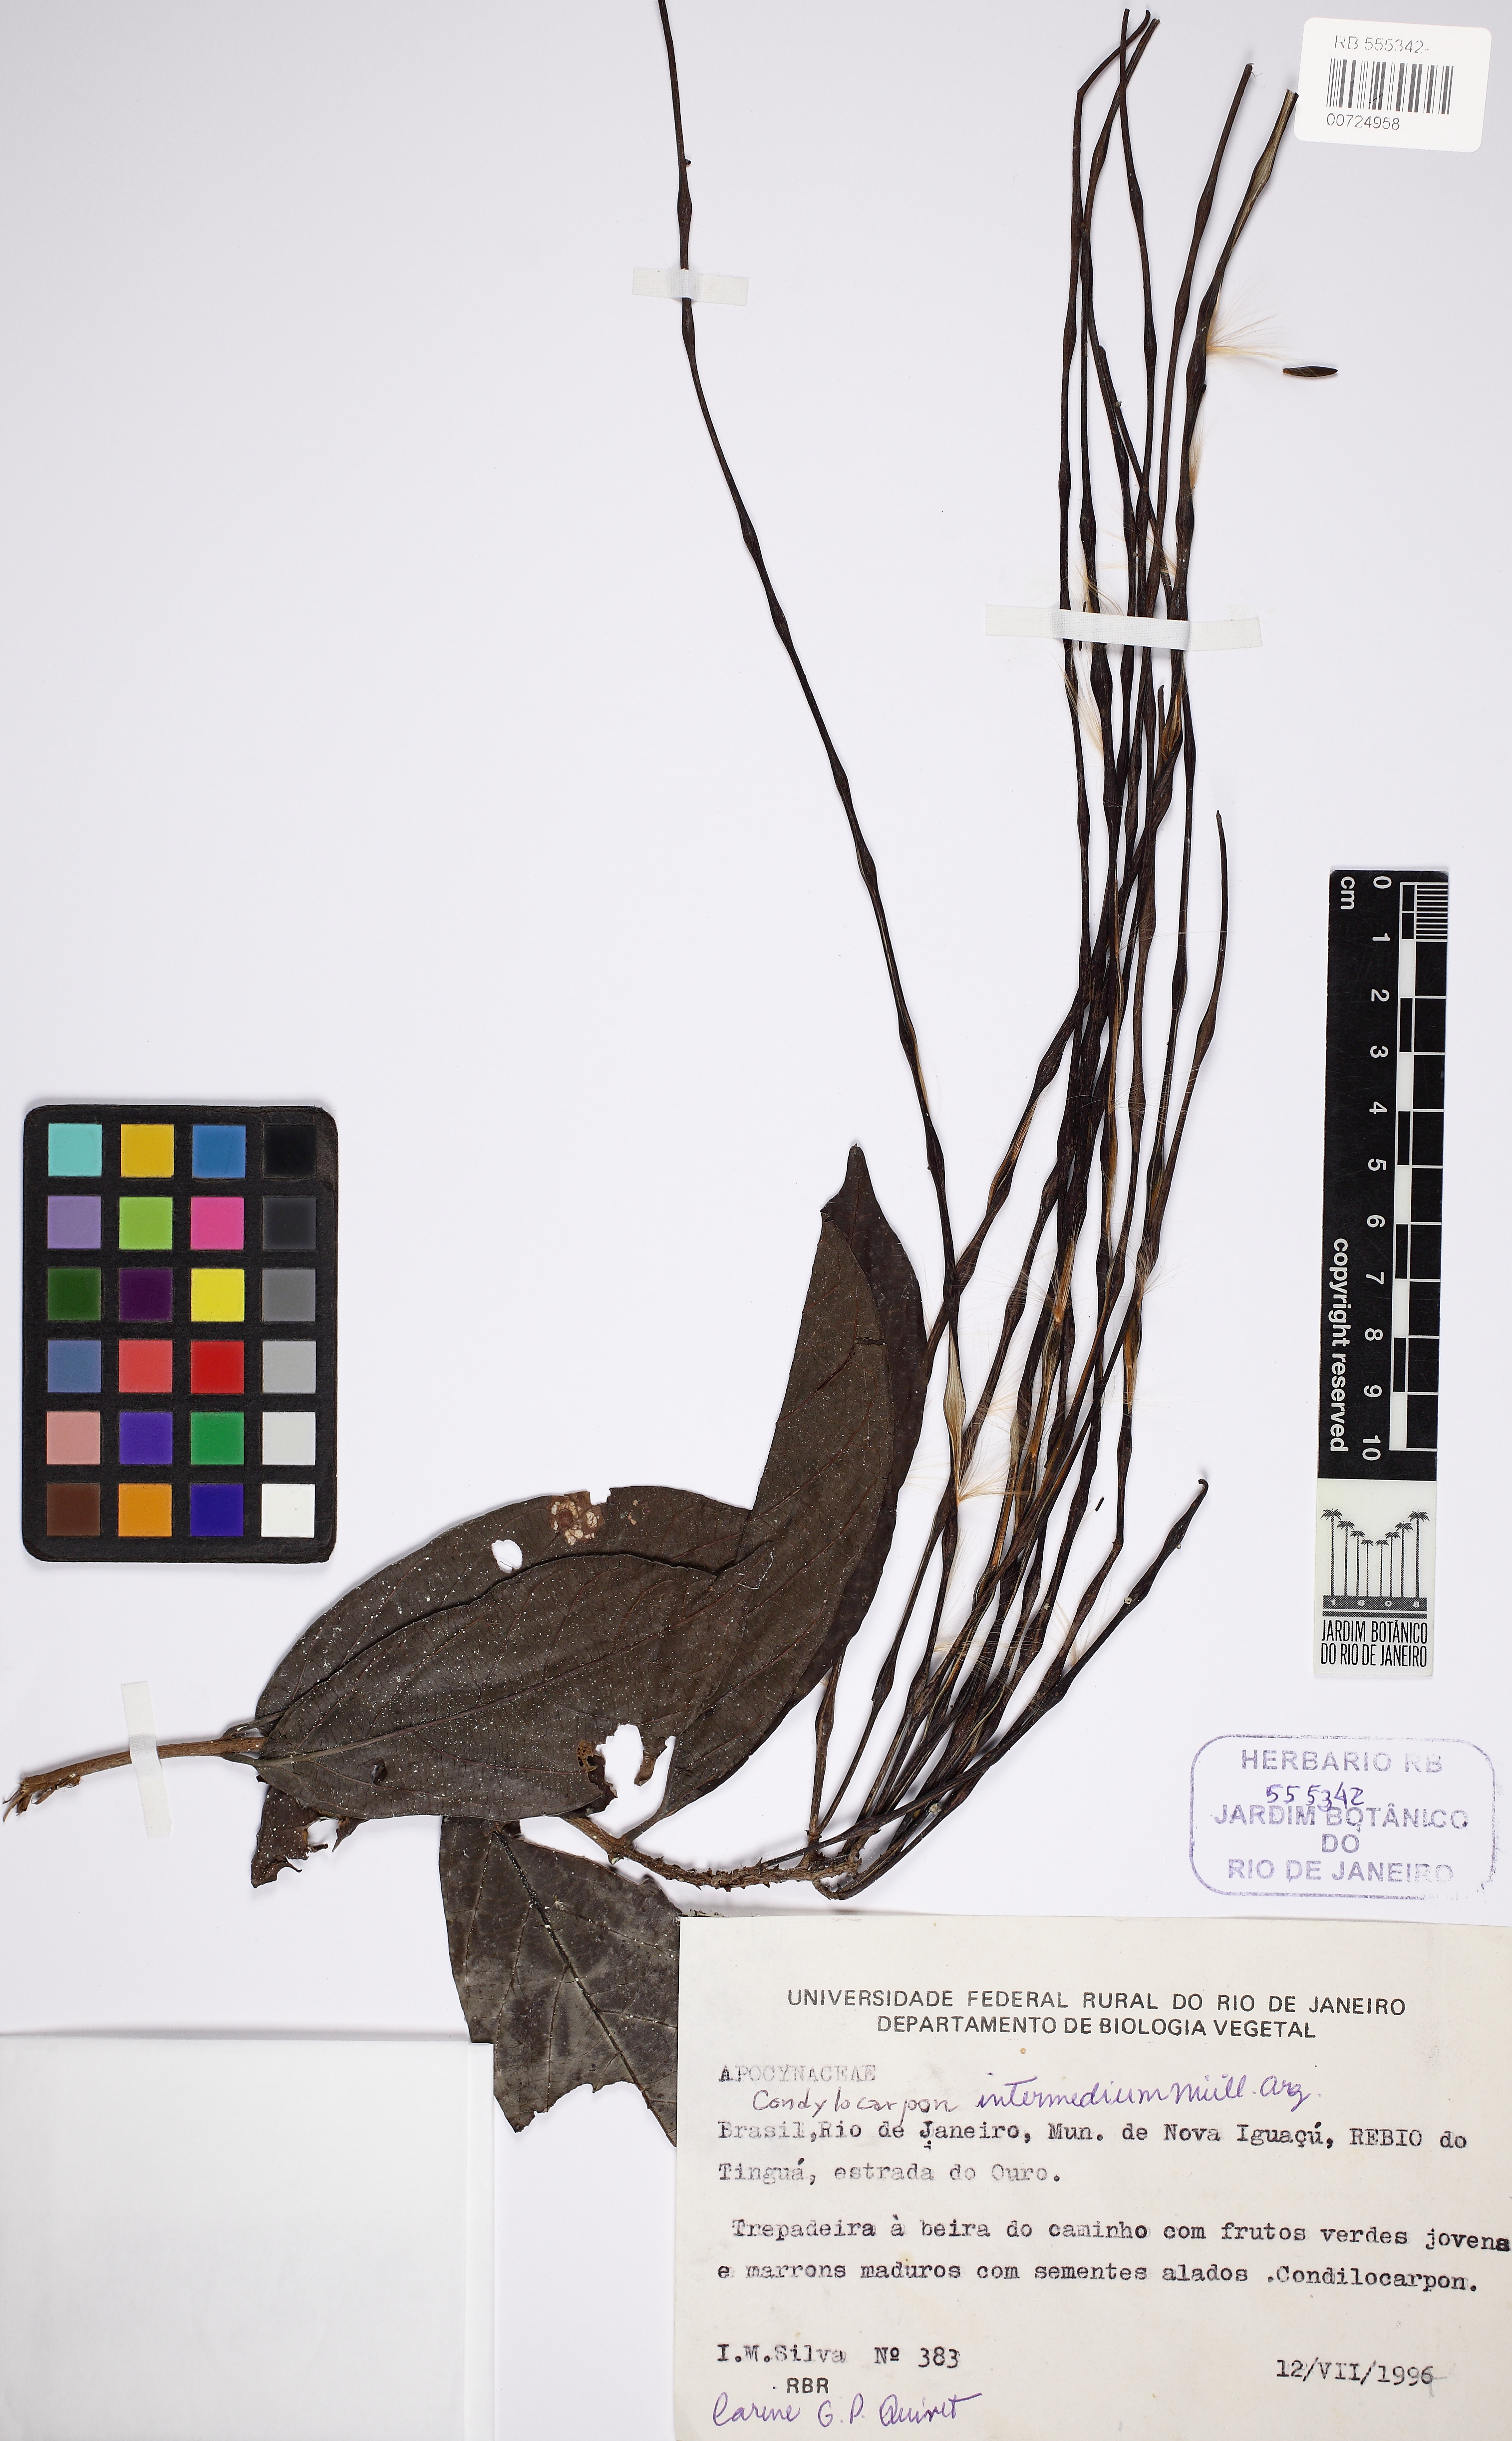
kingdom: Plantae
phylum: Tracheophyta
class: Magnoliopsida
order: Gentianales
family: Apocynaceae
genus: Condylocarpon
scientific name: Condylocarpon intermedium
